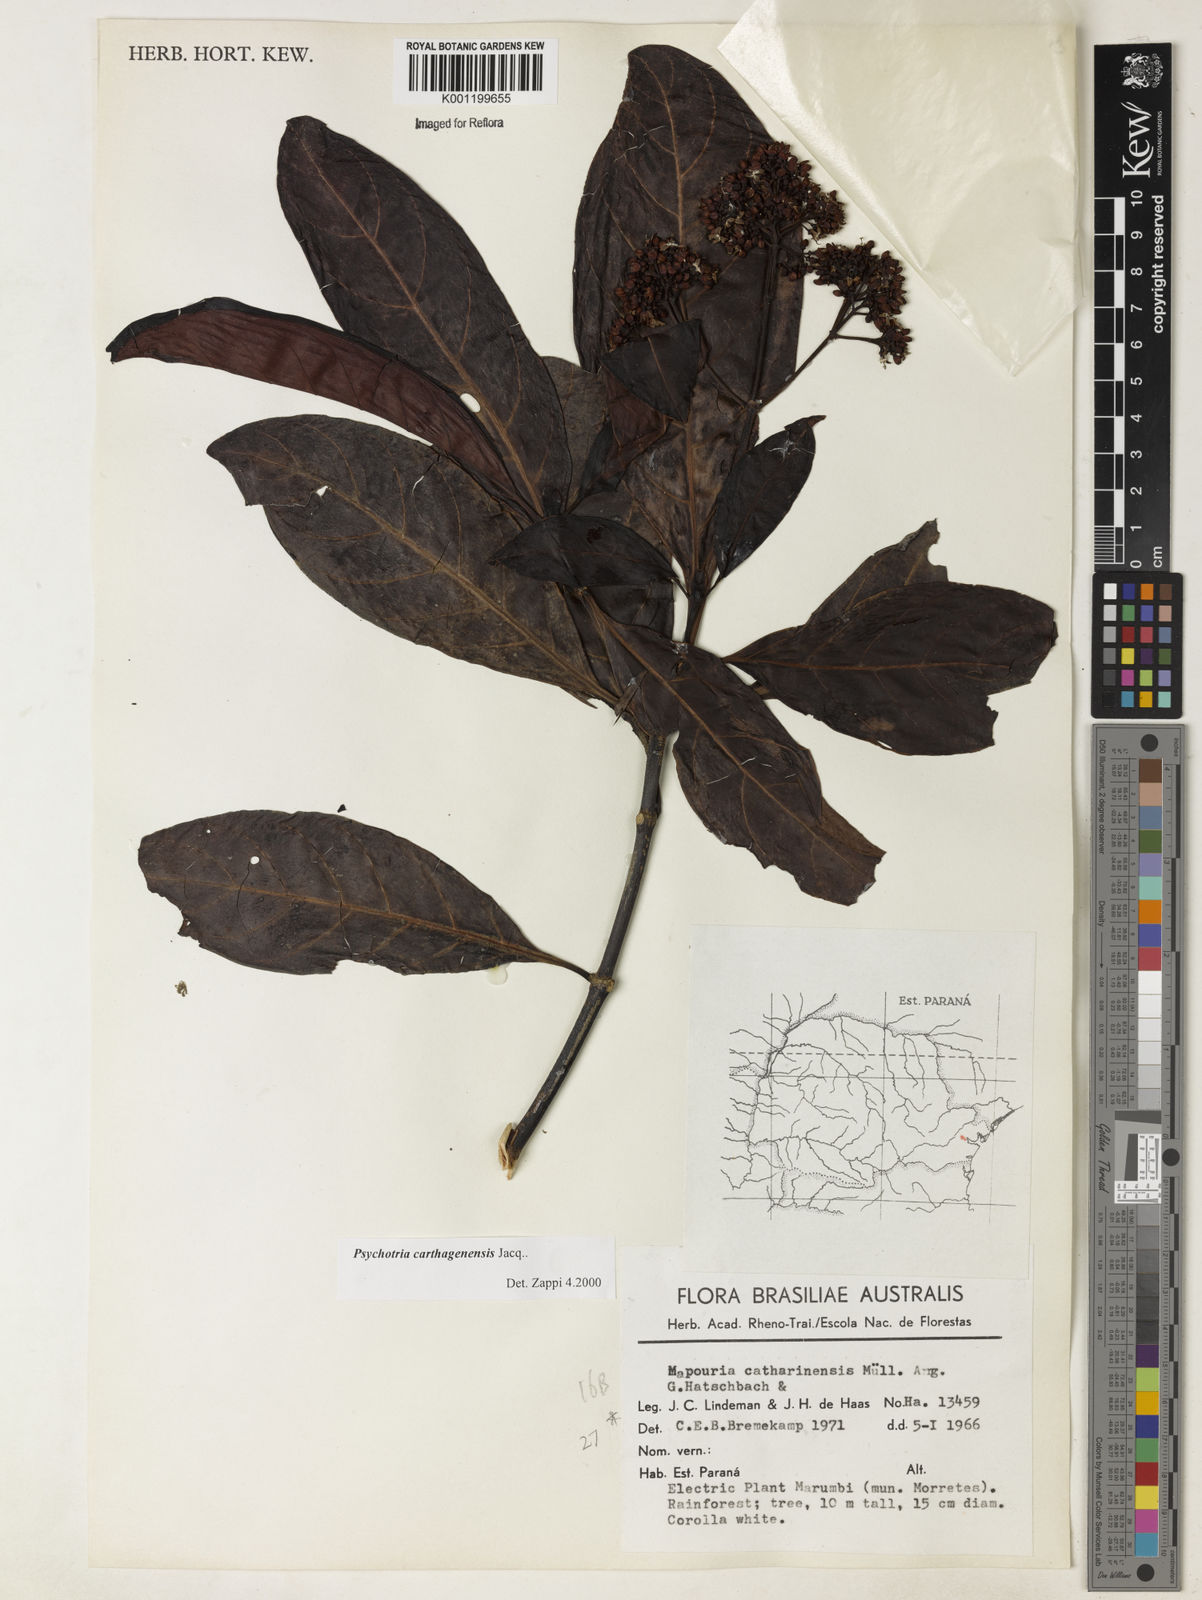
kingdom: Plantae
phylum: Tracheophyta
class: Magnoliopsida
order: Gentianales
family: Rubiaceae
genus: Psychotria
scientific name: Psychotria carthagenensis
